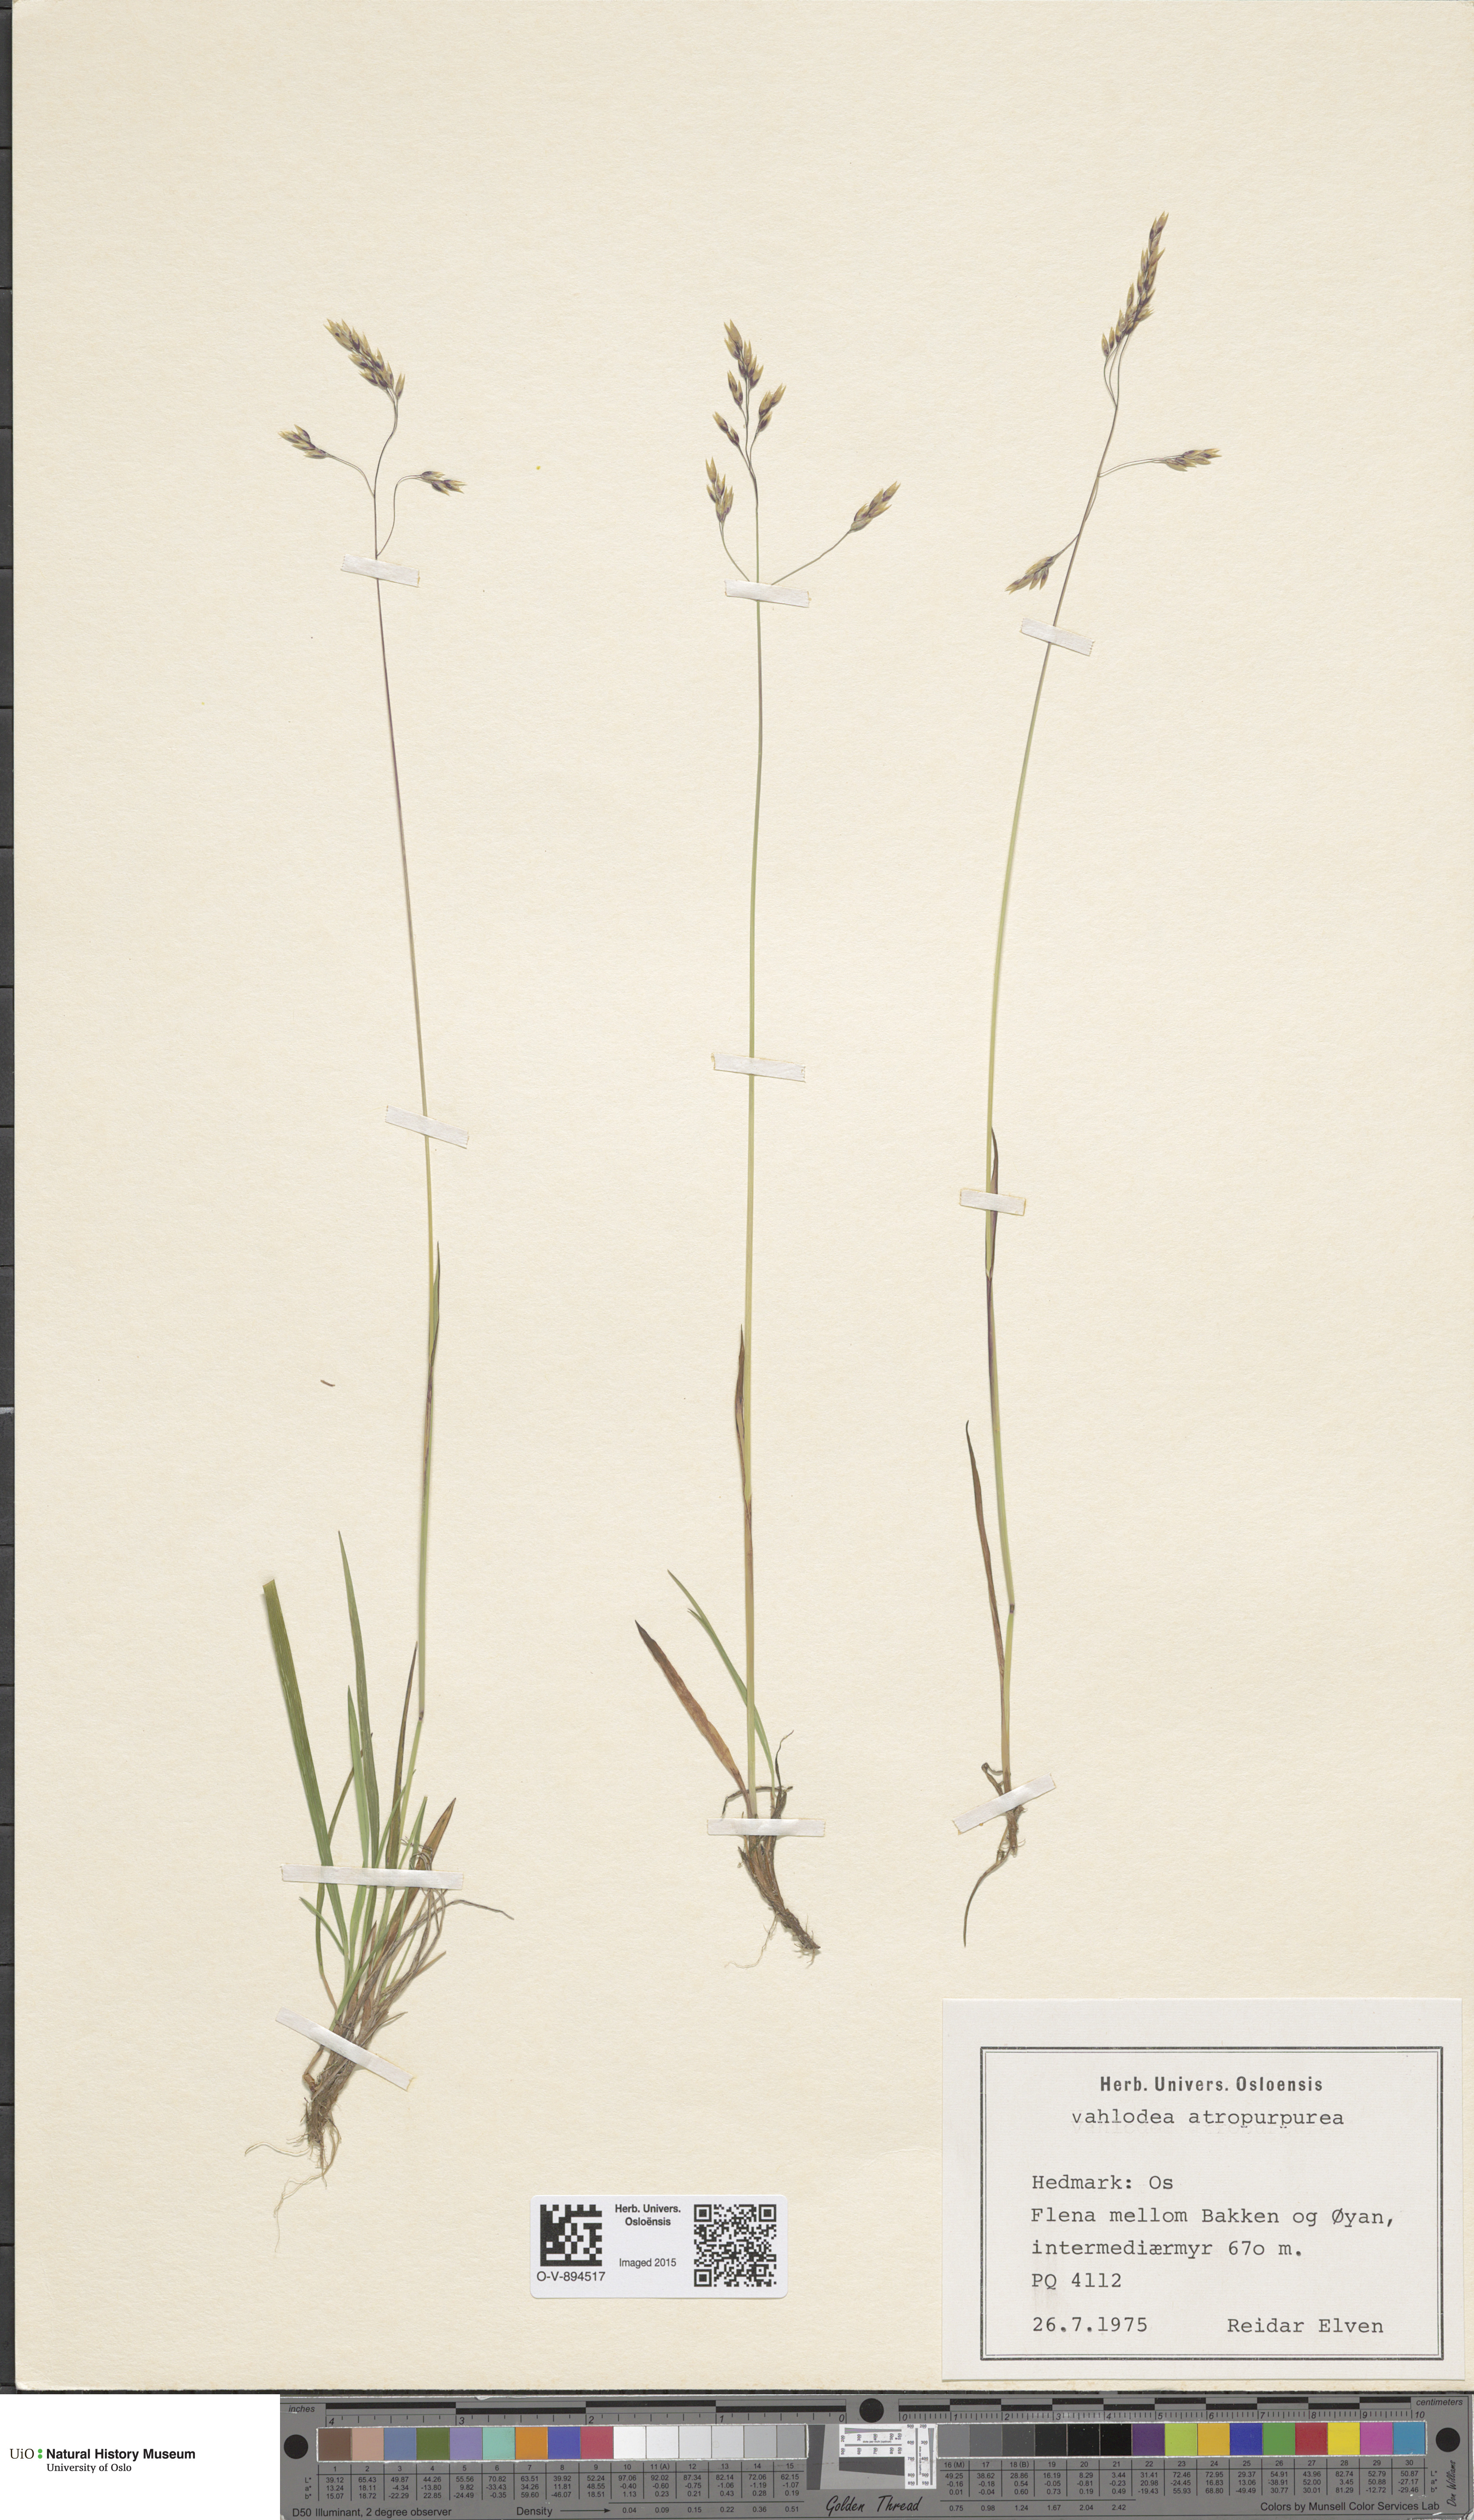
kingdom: Plantae
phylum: Tracheophyta
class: Liliopsida
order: Poales
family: Poaceae
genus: Vahlodea
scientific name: Vahlodea atropurpurea
